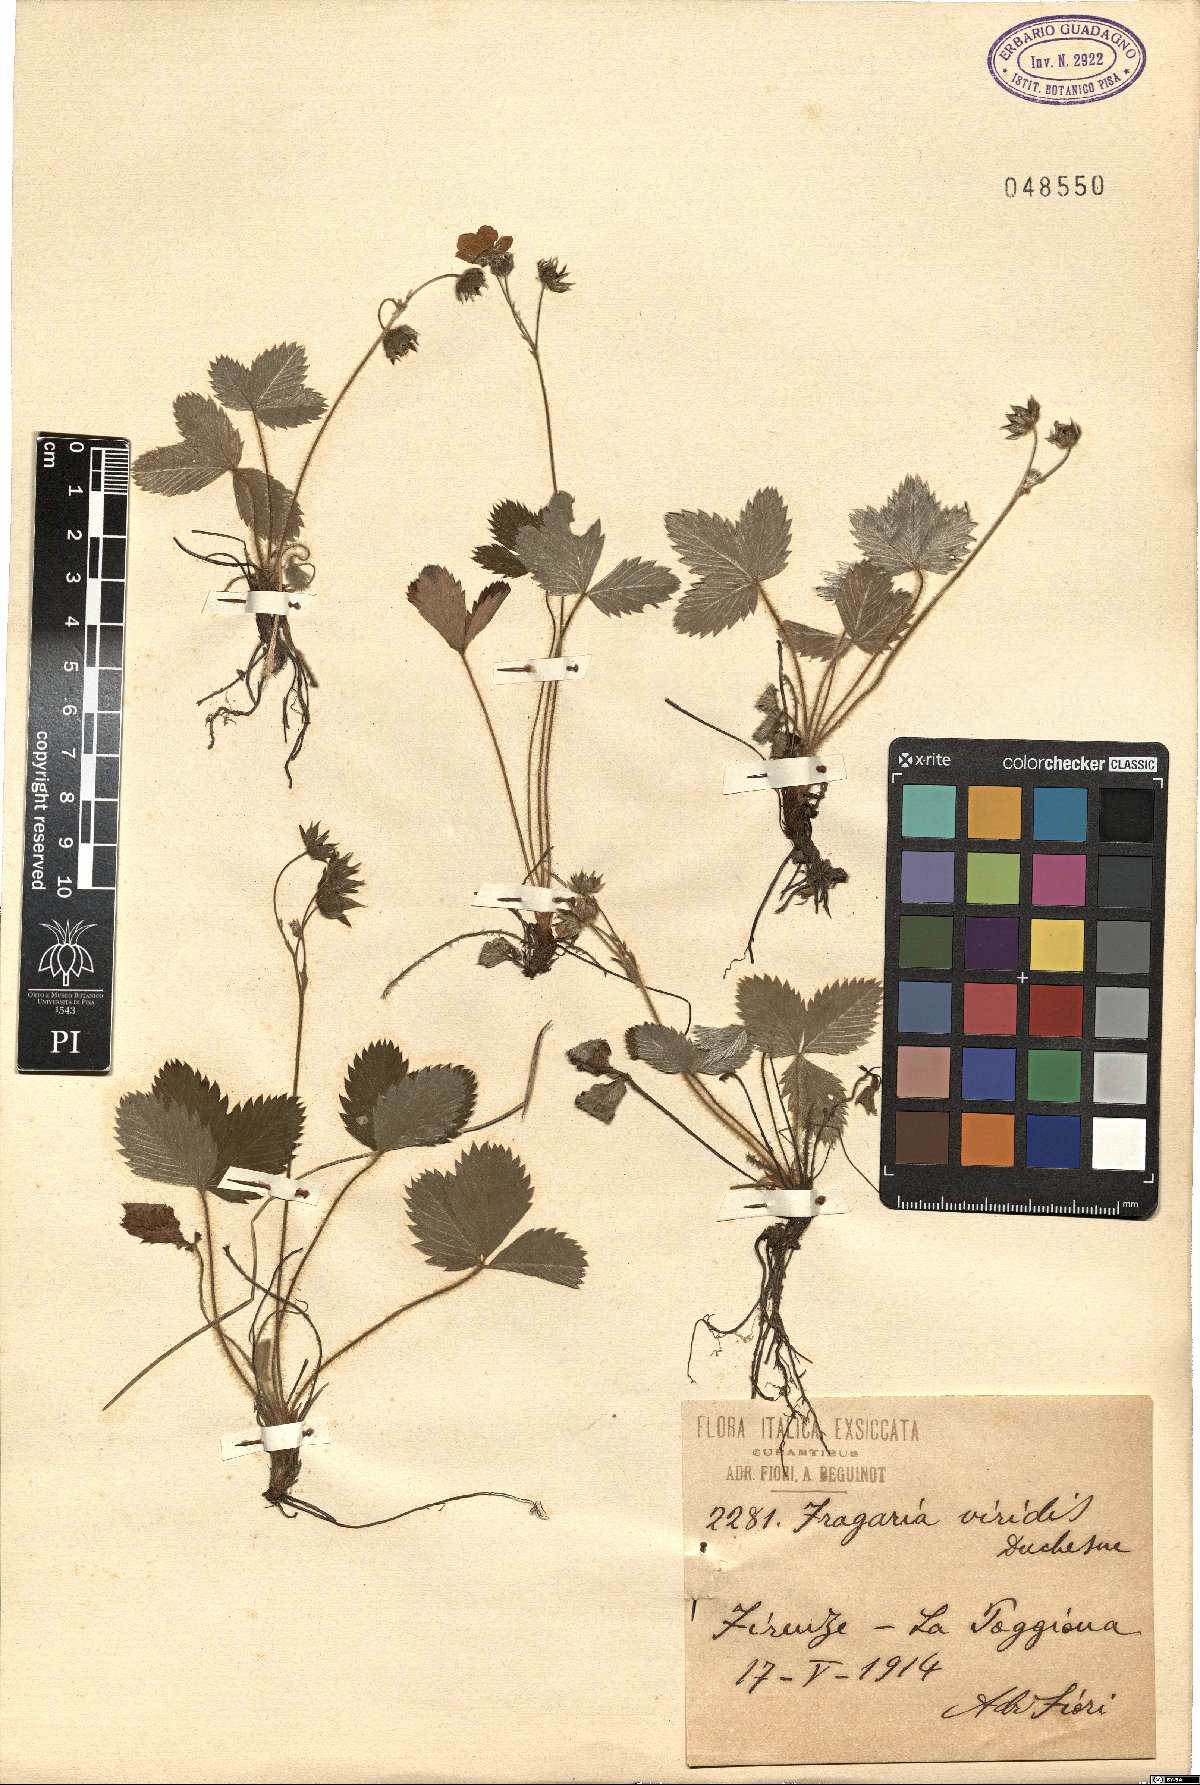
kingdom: Plantae
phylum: Tracheophyta
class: Magnoliopsida
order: Rosales
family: Rosaceae
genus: Fragaria
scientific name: Fragaria viridis
